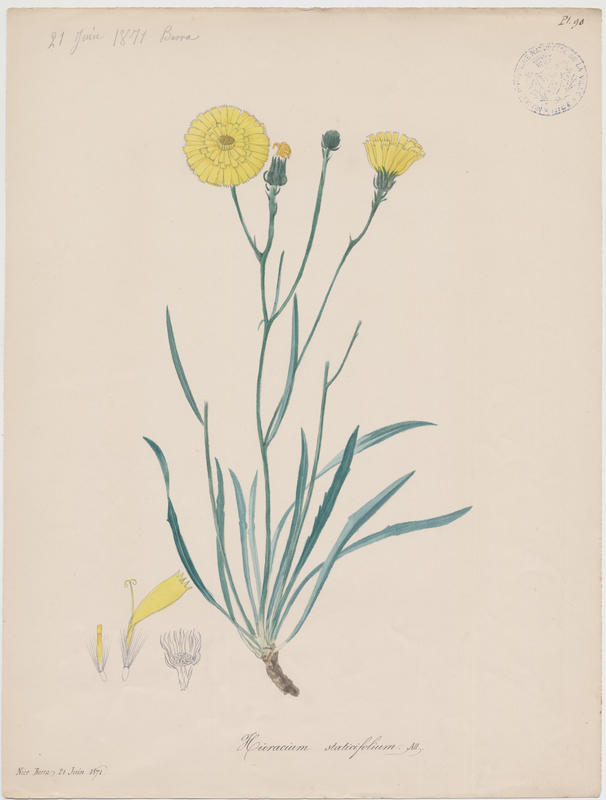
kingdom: Plantae
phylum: Tracheophyta
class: Magnoliopsida
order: Asterales
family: Asteraceae
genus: Tolpis
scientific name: Tolpis staticifolia
